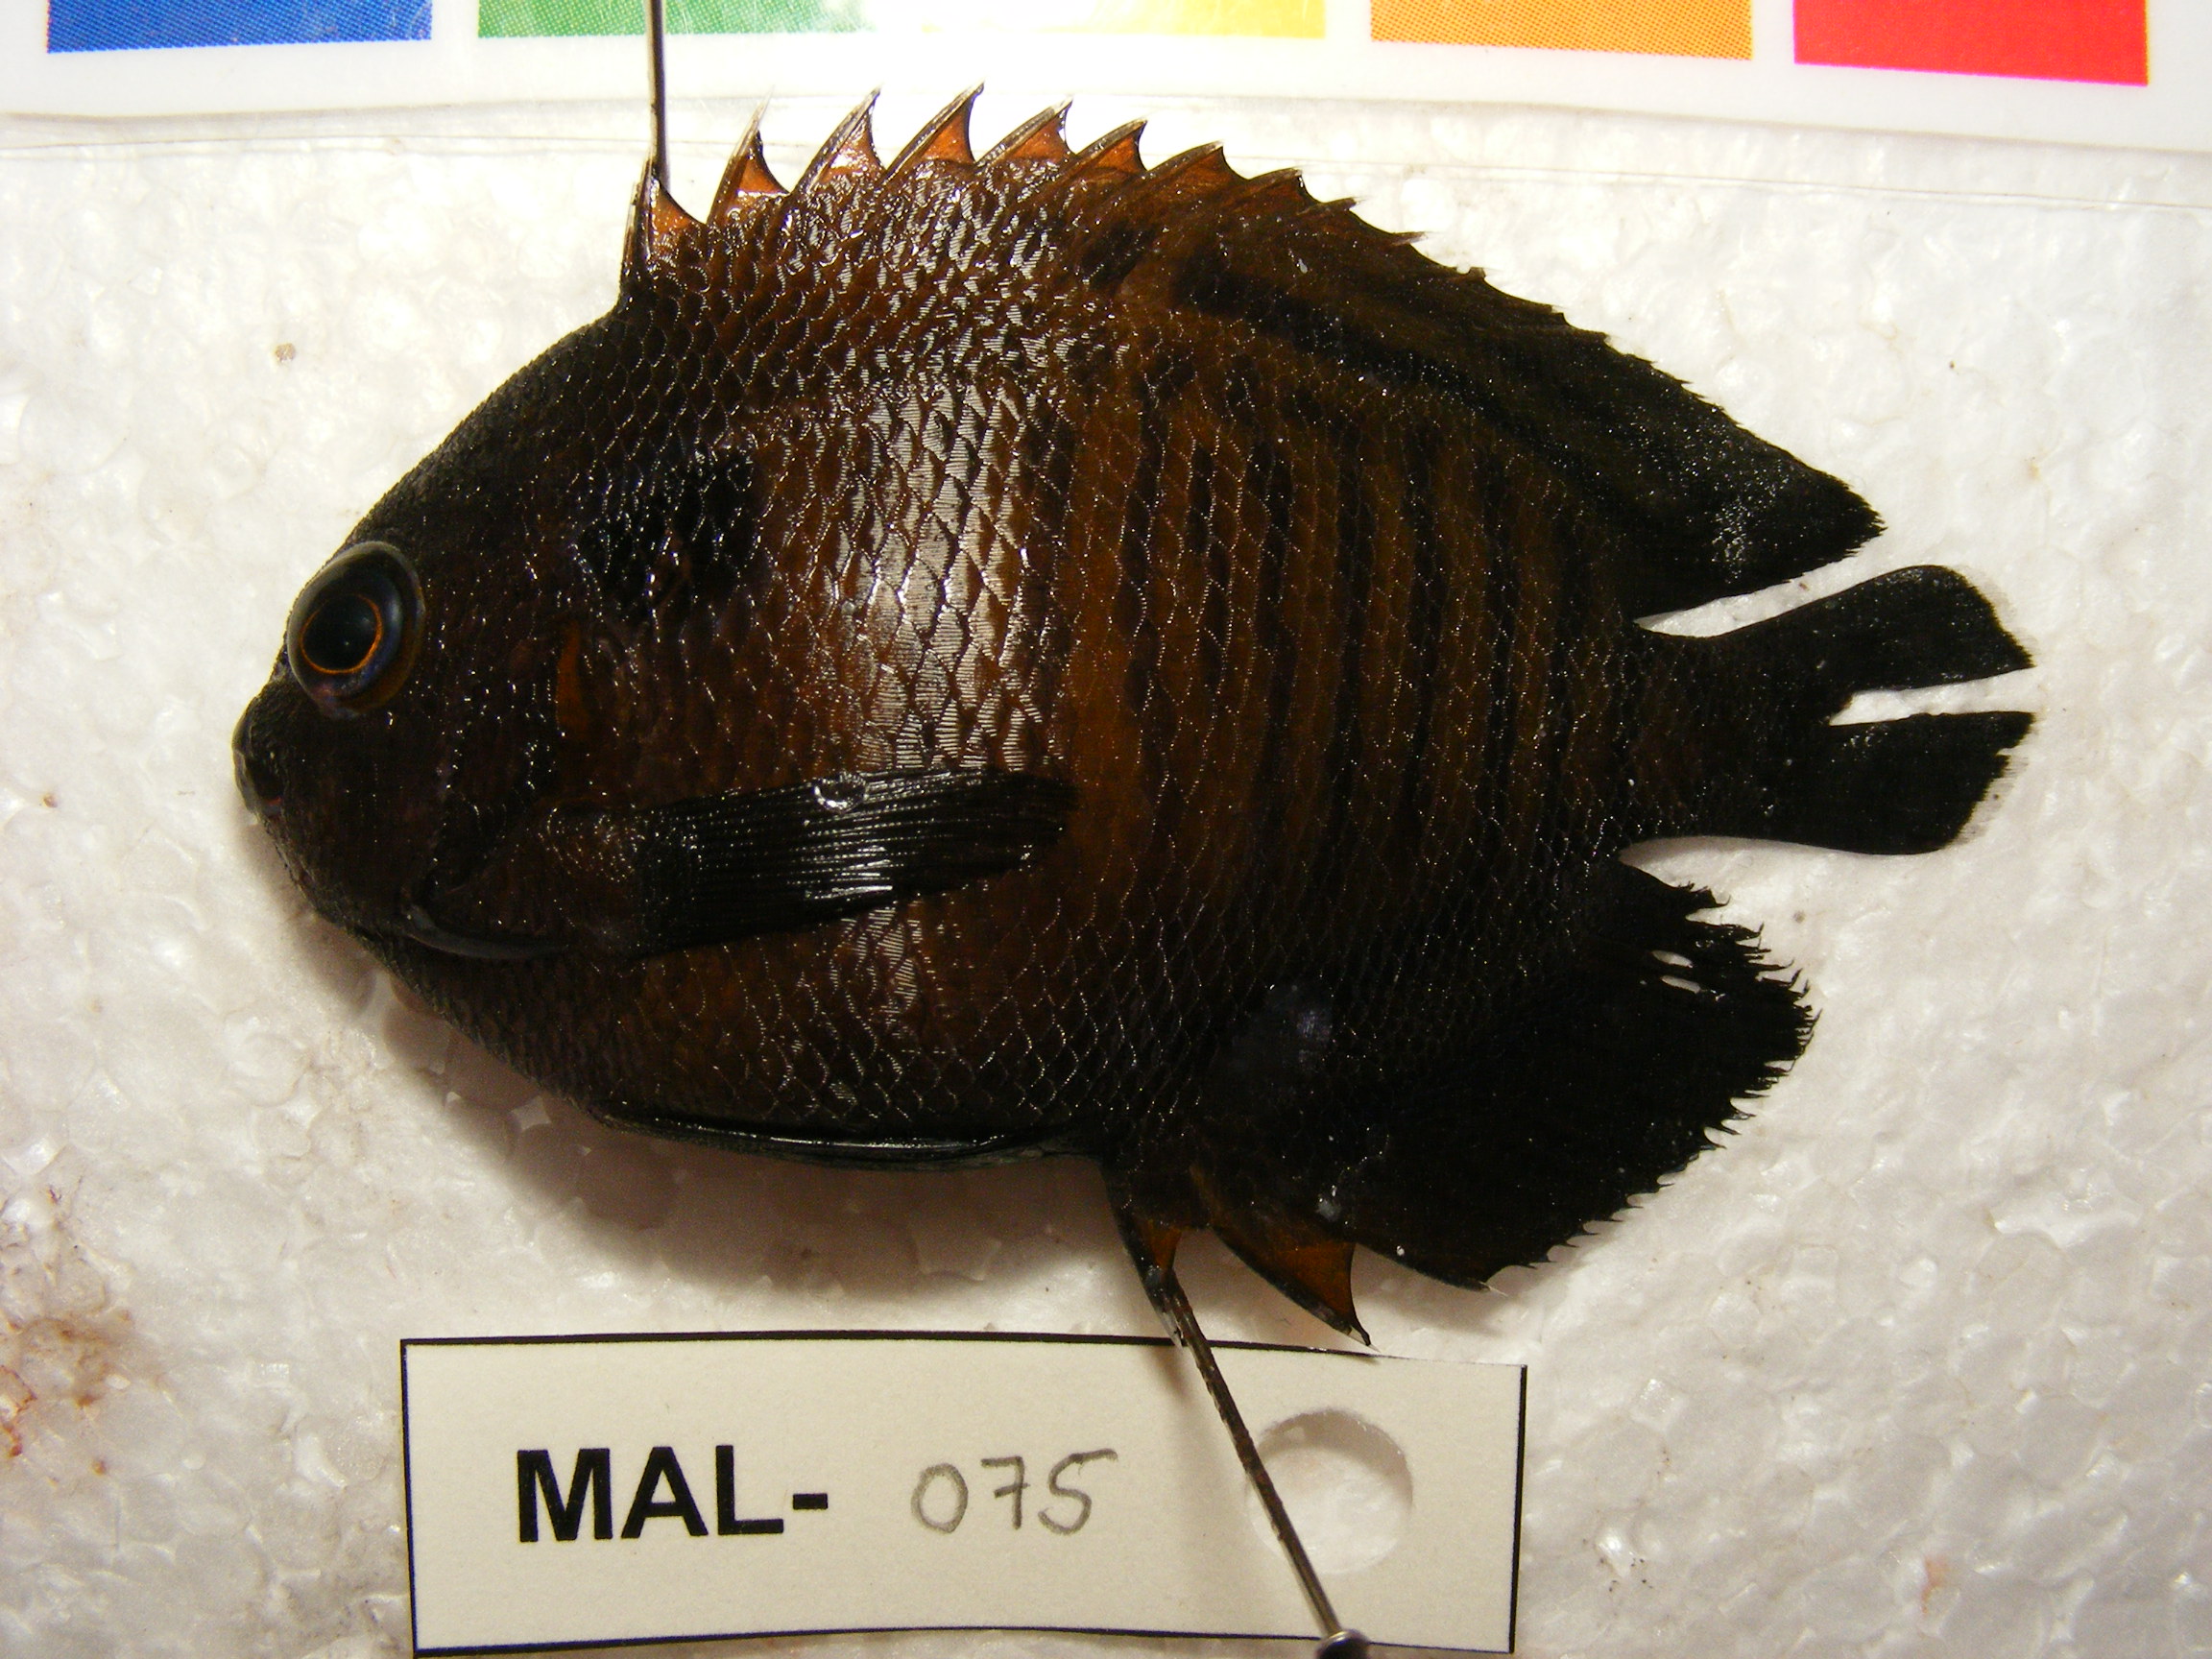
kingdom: Animalia
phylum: Chordata
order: Perciformes
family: Pomacanthidae
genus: Centropyge
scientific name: Centropyge multispinis
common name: Many-spined angelfish
